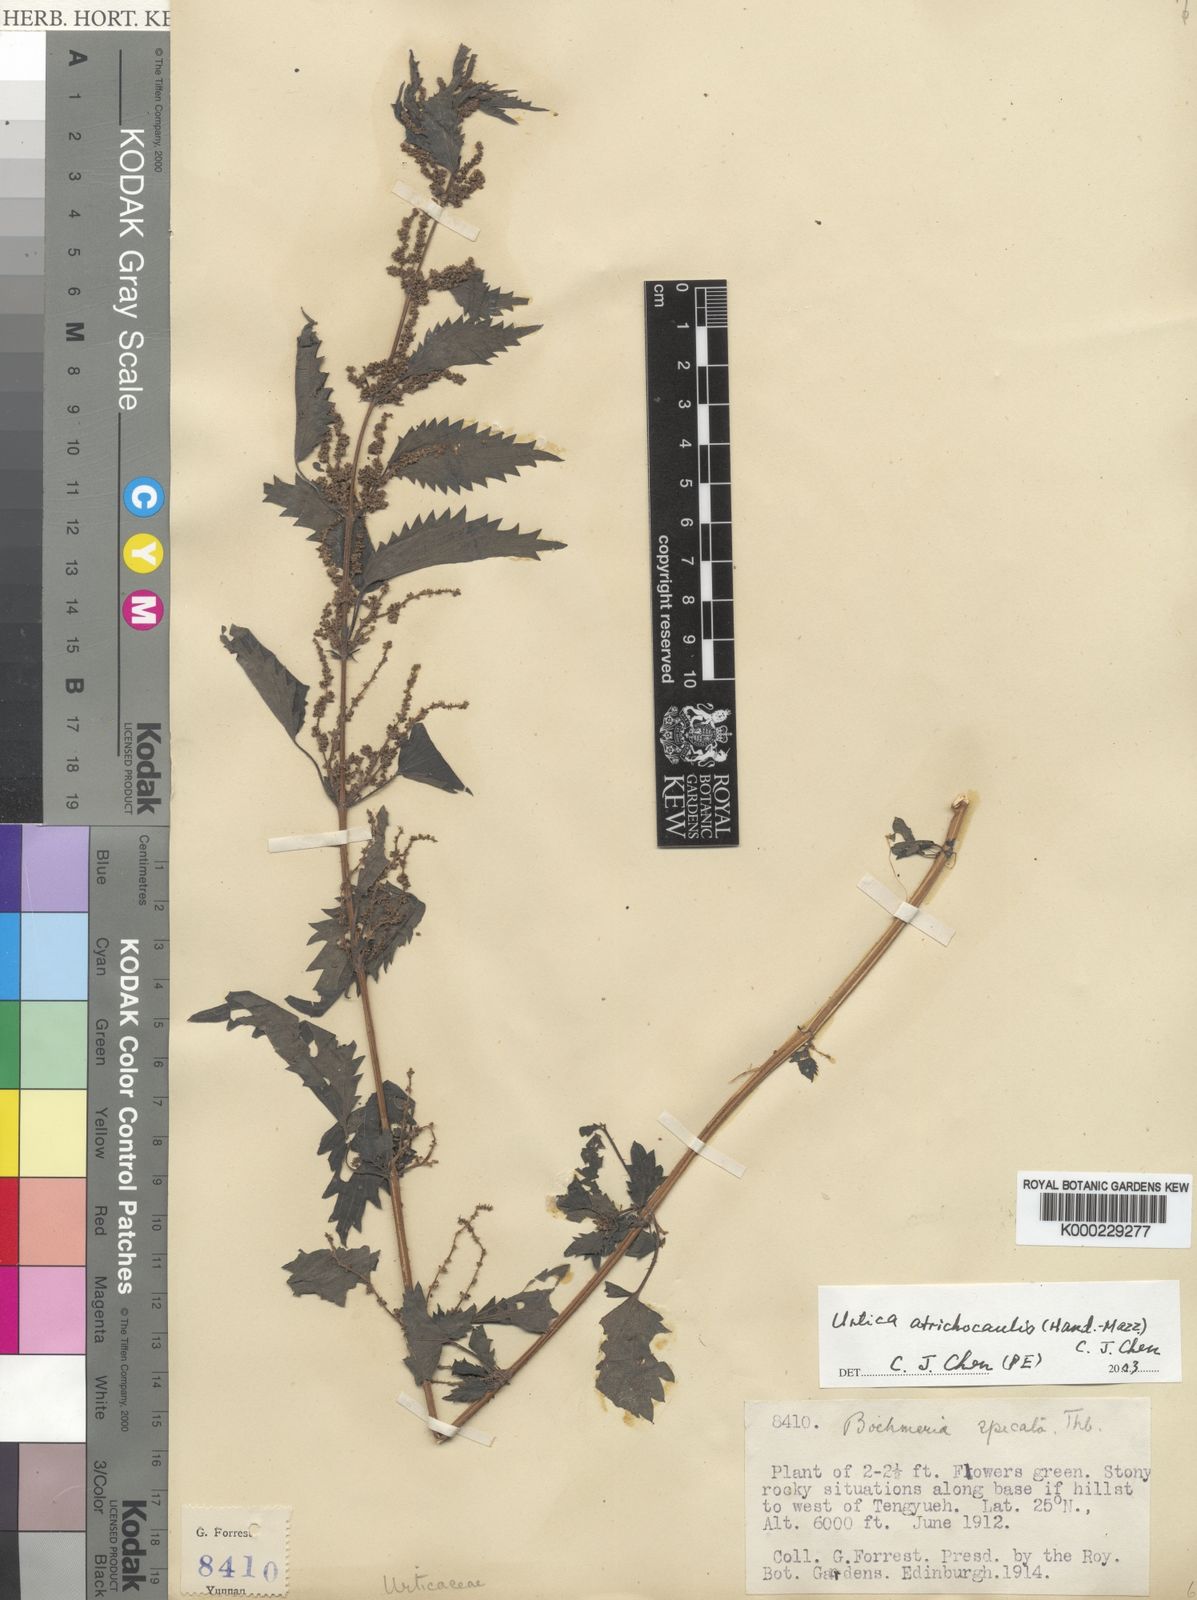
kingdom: Plantae
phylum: Tracheophyta
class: Magnoliopsida
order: Rosales
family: Urticaceae
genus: Urtica
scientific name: Urtica atrichocaulis
